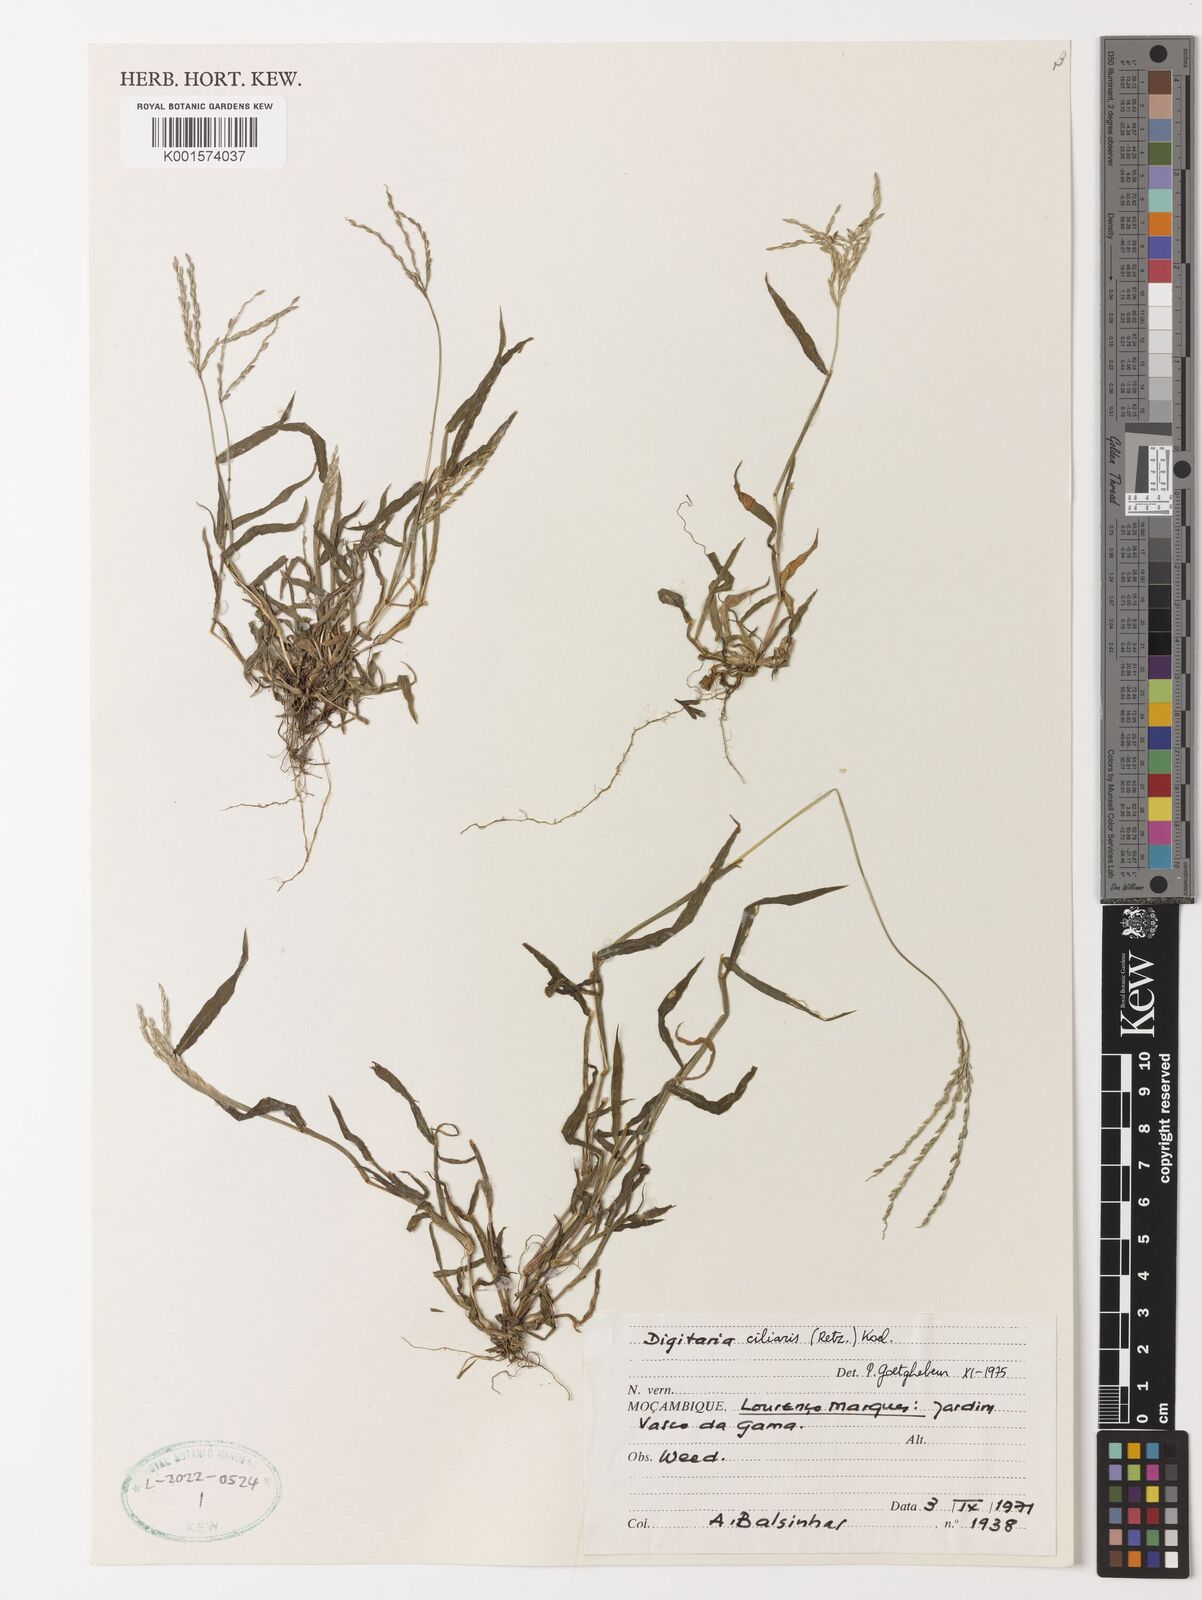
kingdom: Plantae
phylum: Tracheophyta
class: Liliopsida
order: Poales
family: Poaceae
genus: Digitaria
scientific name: Digitaria ciliaris
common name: Tropical finger-grass
